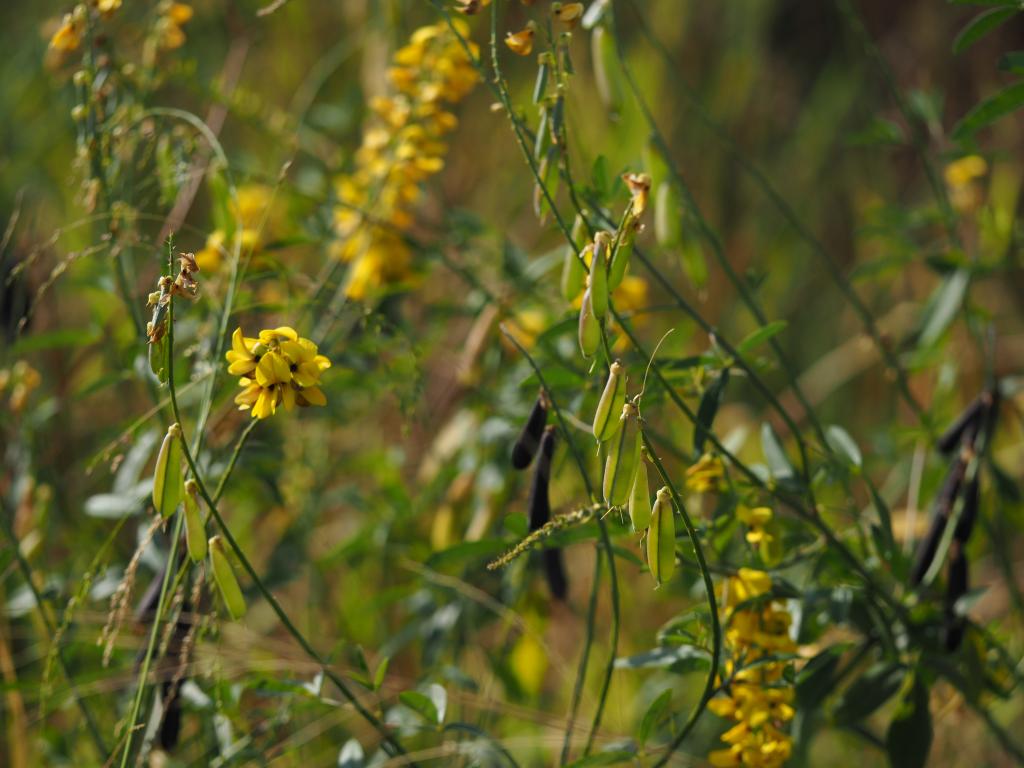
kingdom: Plantae
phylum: Tracheophyta
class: Magnoliopsida
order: Fabales
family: Fabaceae
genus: Crotalaria
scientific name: Crotalaria trichotoma
